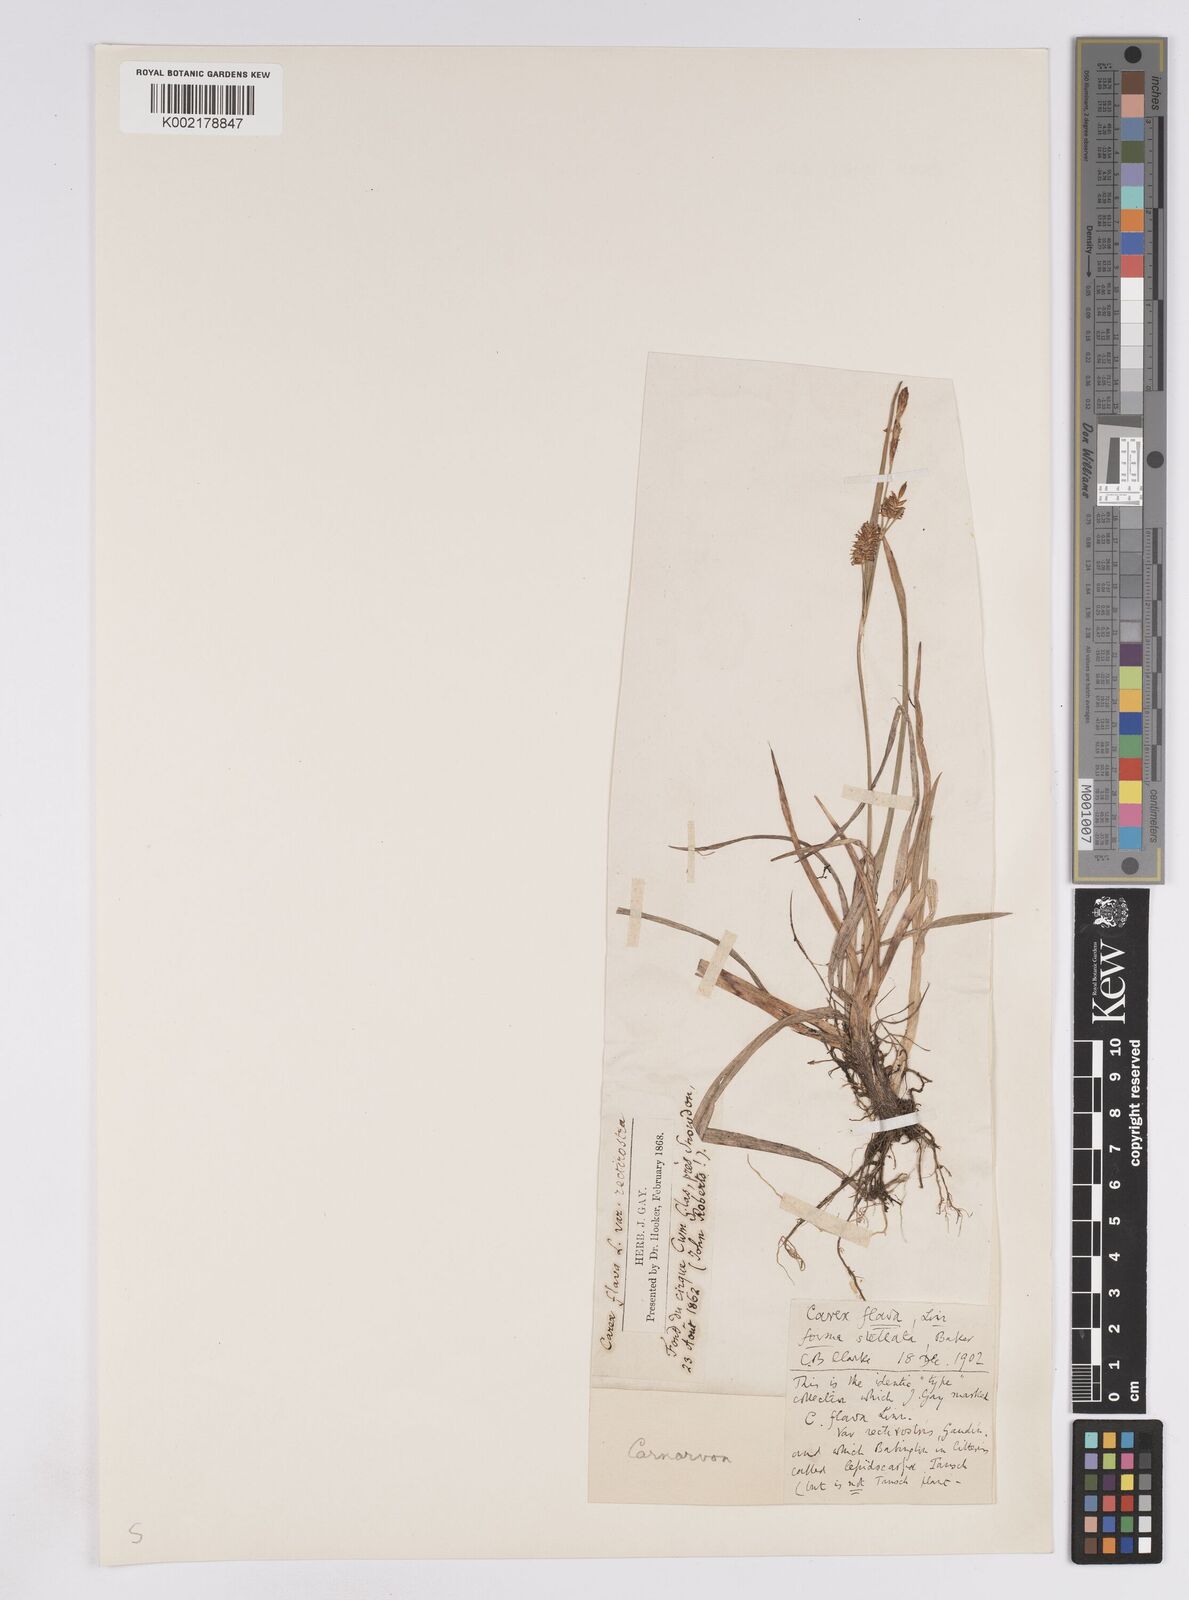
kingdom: Plantae
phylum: Tracheophyta
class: Liliopsida
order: Poales
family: Cyperaceae
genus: Carex
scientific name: Carex lepidocarpa
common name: Long-stalked yellow-sedge
